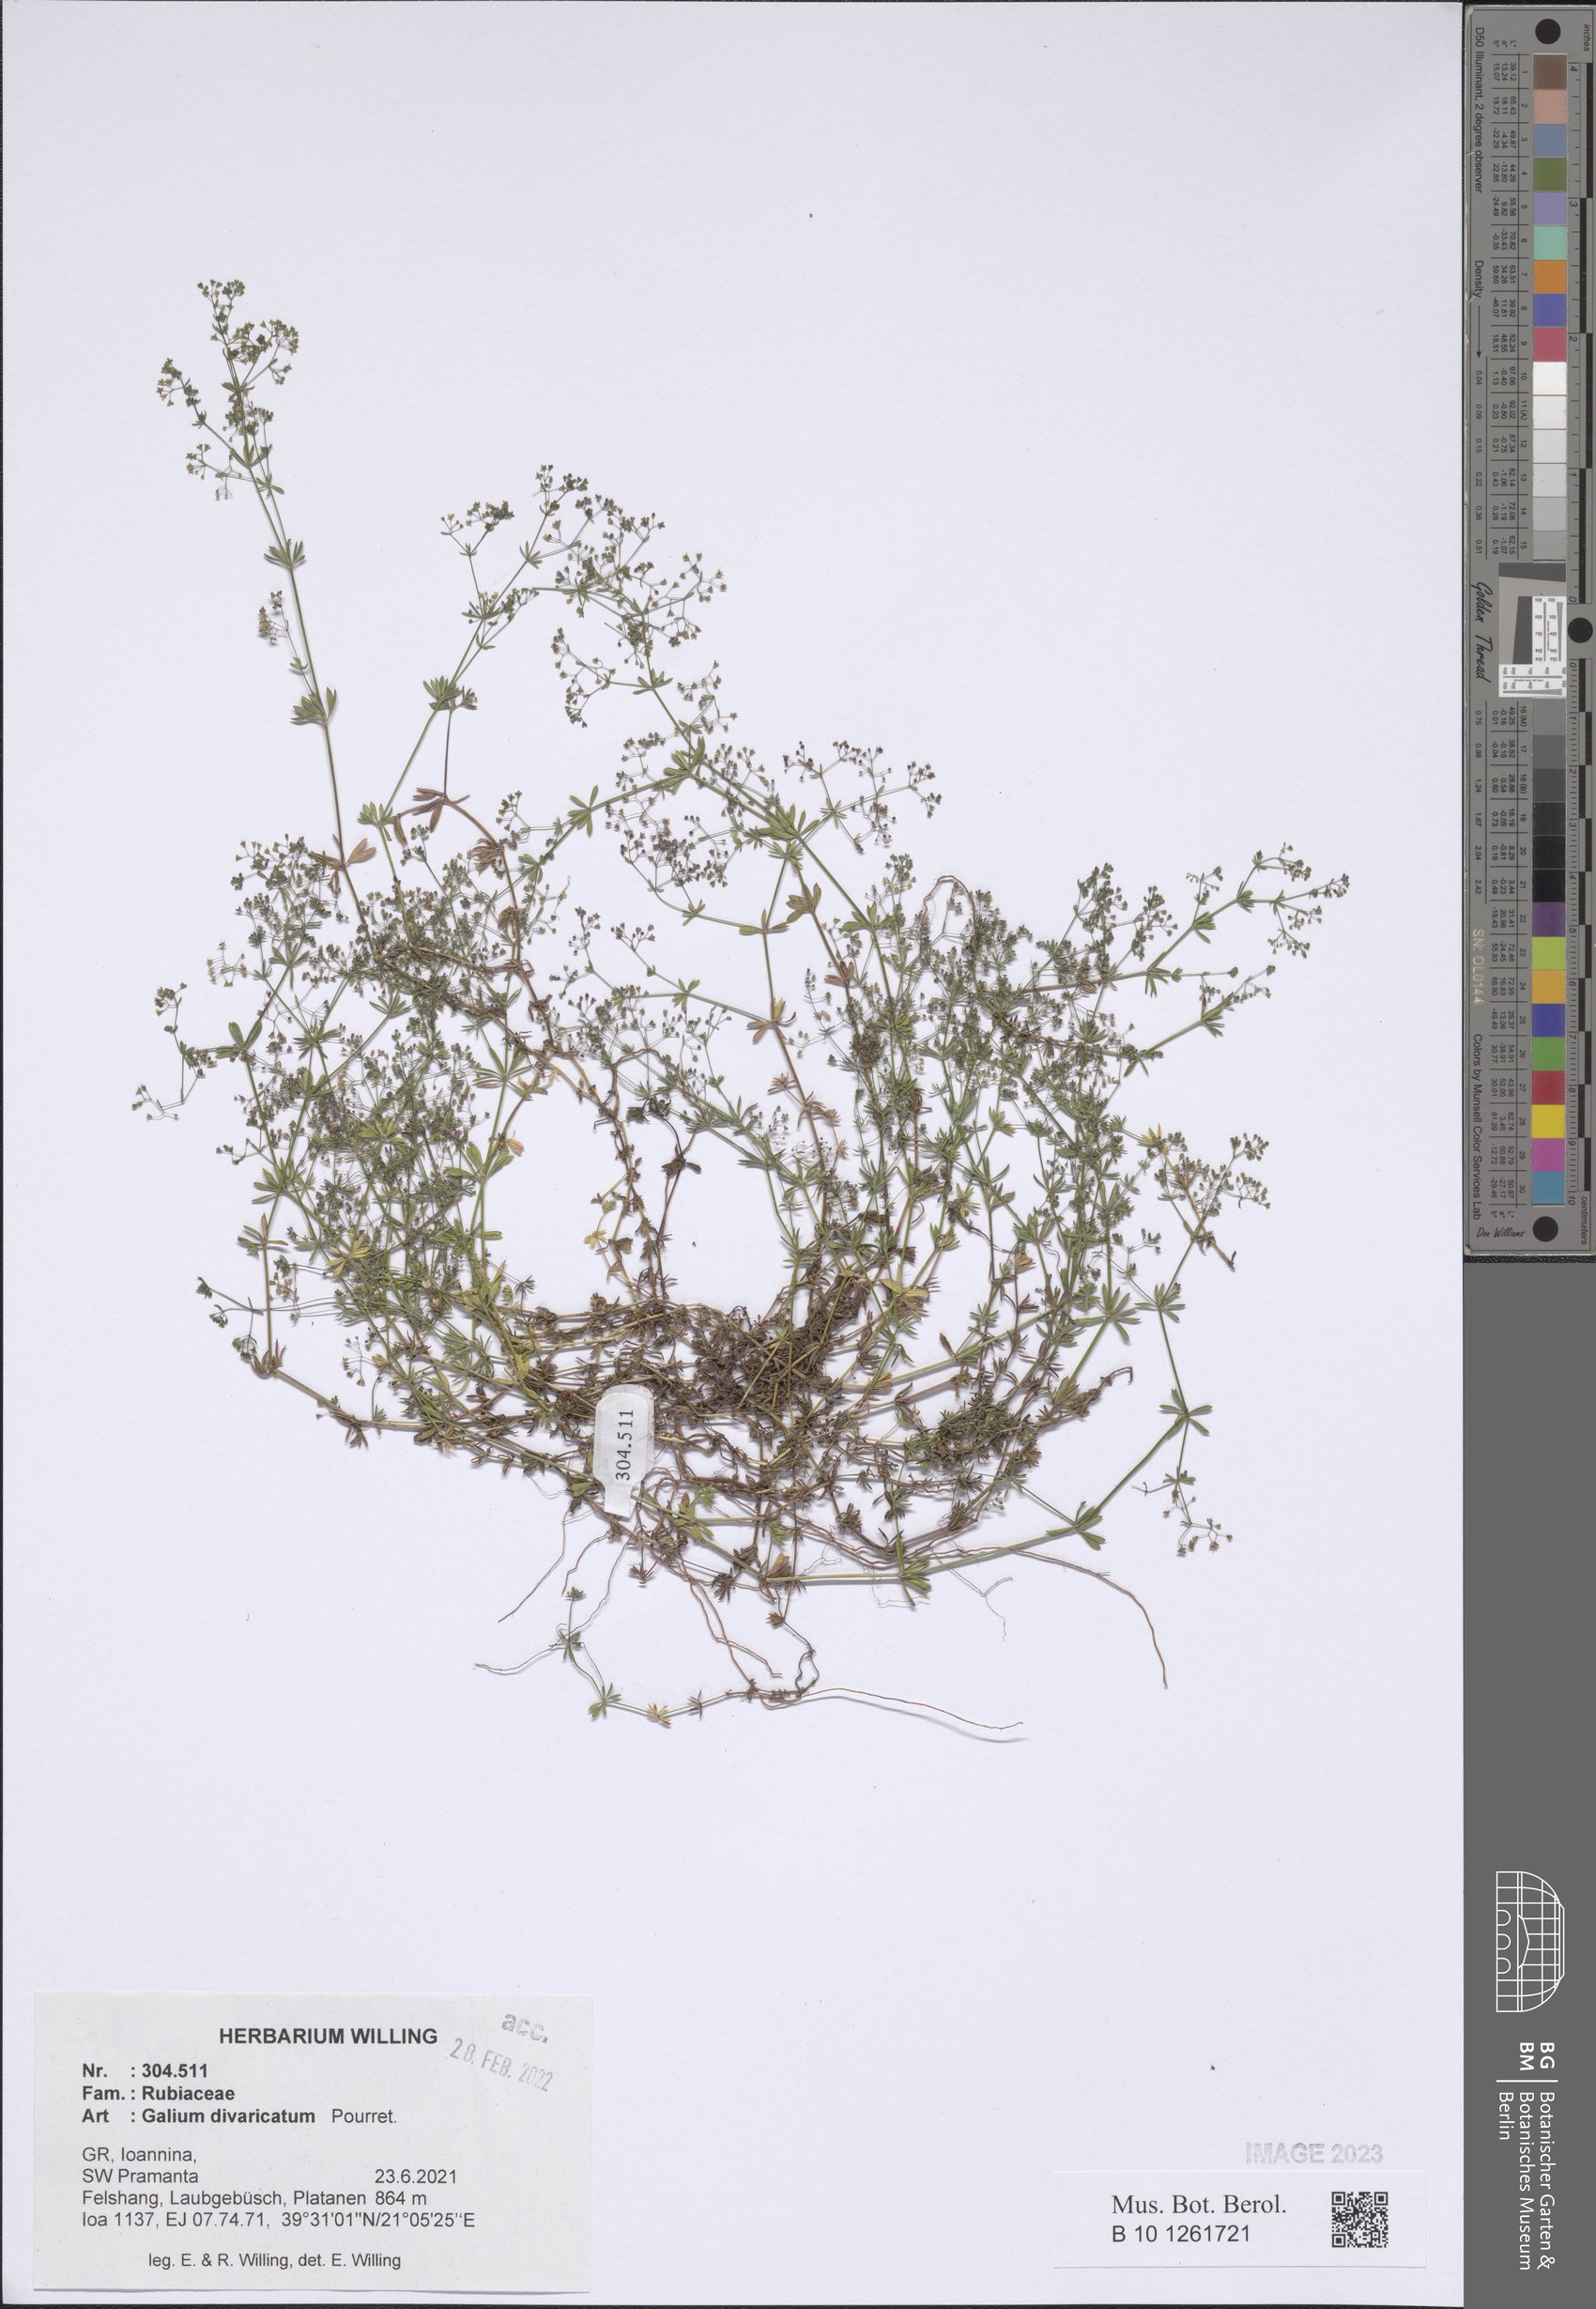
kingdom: Plantae
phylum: Tracheophyta
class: Magnoliopsida
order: Gentianales
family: Rubiaceae
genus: Galium
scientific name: Galium divaricatum
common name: Lamarck's bedstraw
